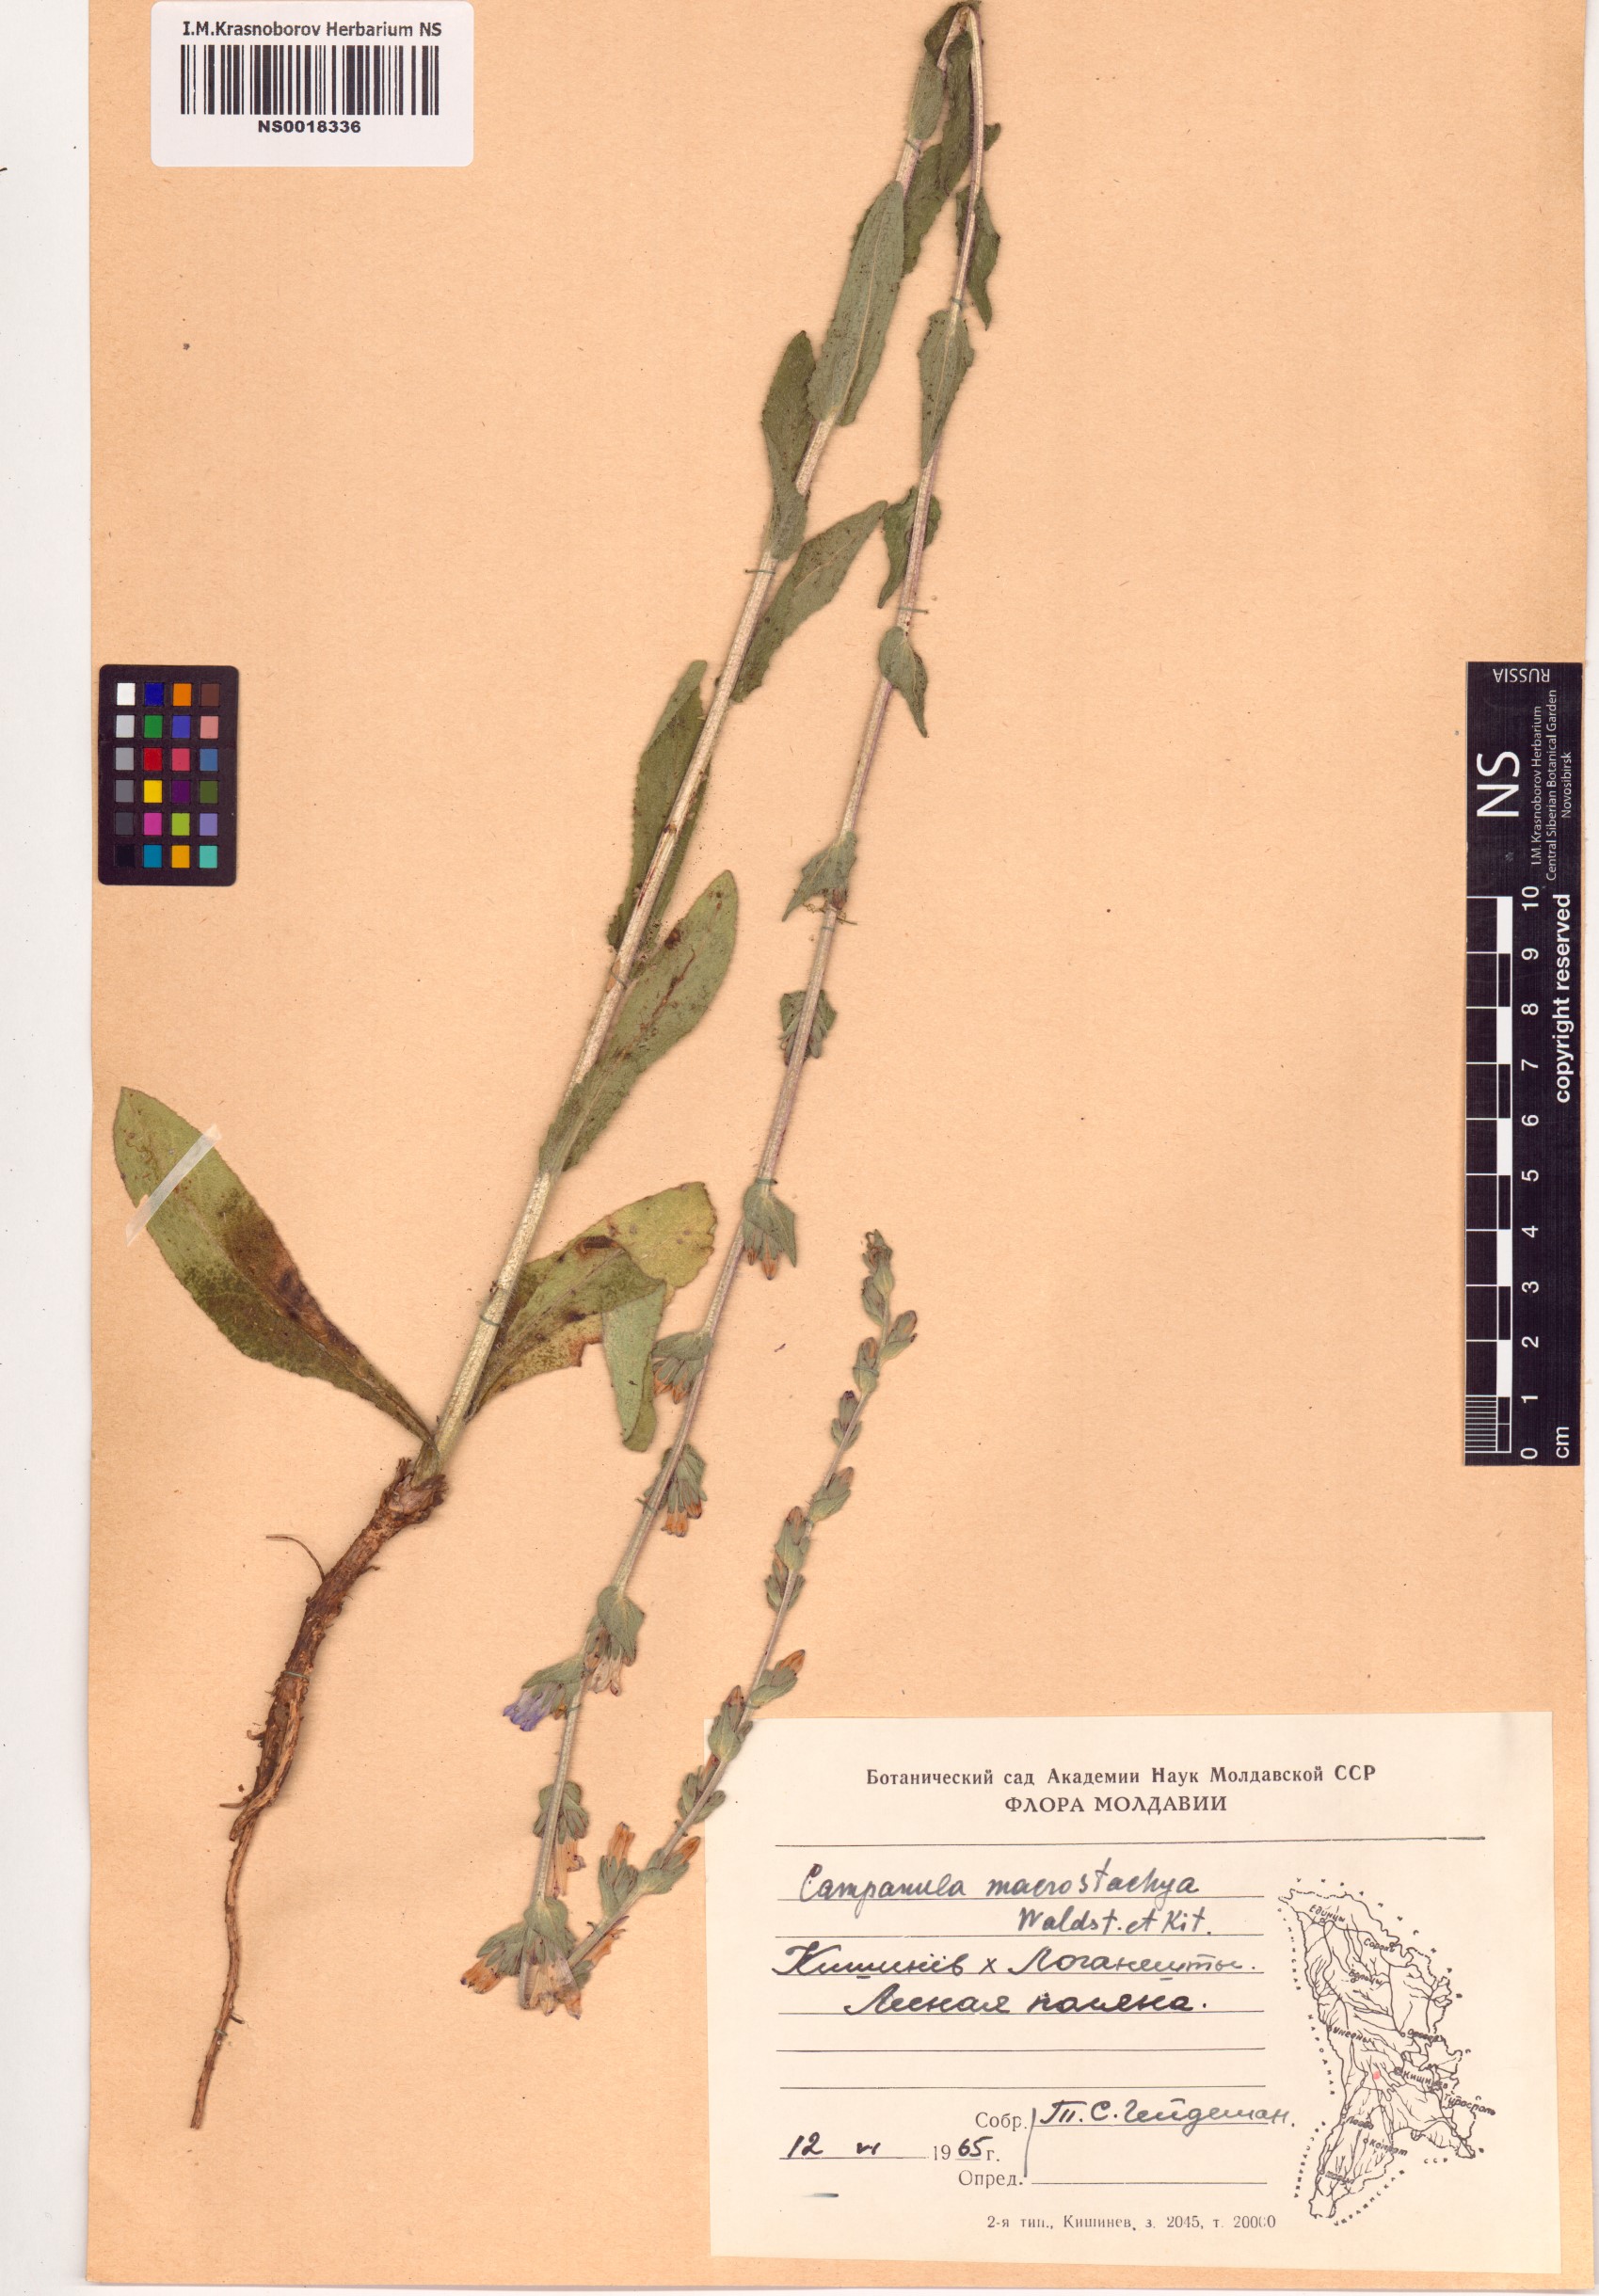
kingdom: Plantae
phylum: Tracheophyta
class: Magnoliopsida
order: Asterales
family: Campanulaceae
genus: Campanula
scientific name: Campanula macrostachya
